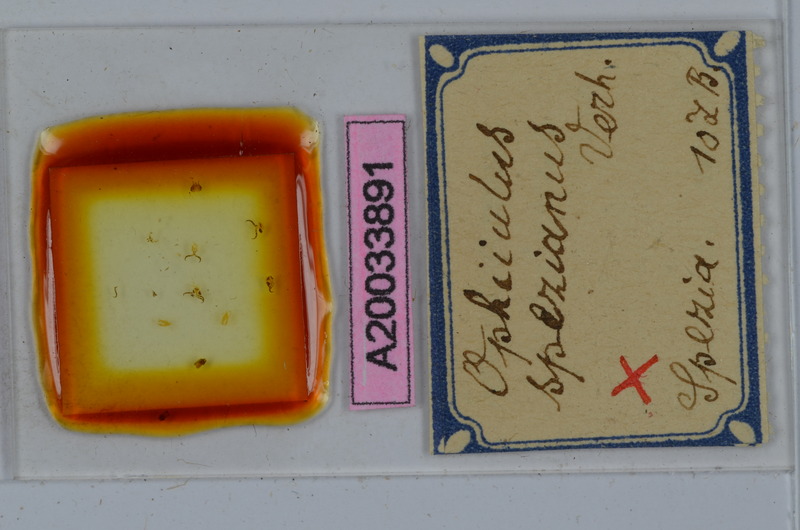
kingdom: Animalia
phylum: Arthropoda
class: Diplopoda
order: Julida
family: Julidae
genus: Ophyiulus
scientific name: Ophyiulus spezianus
